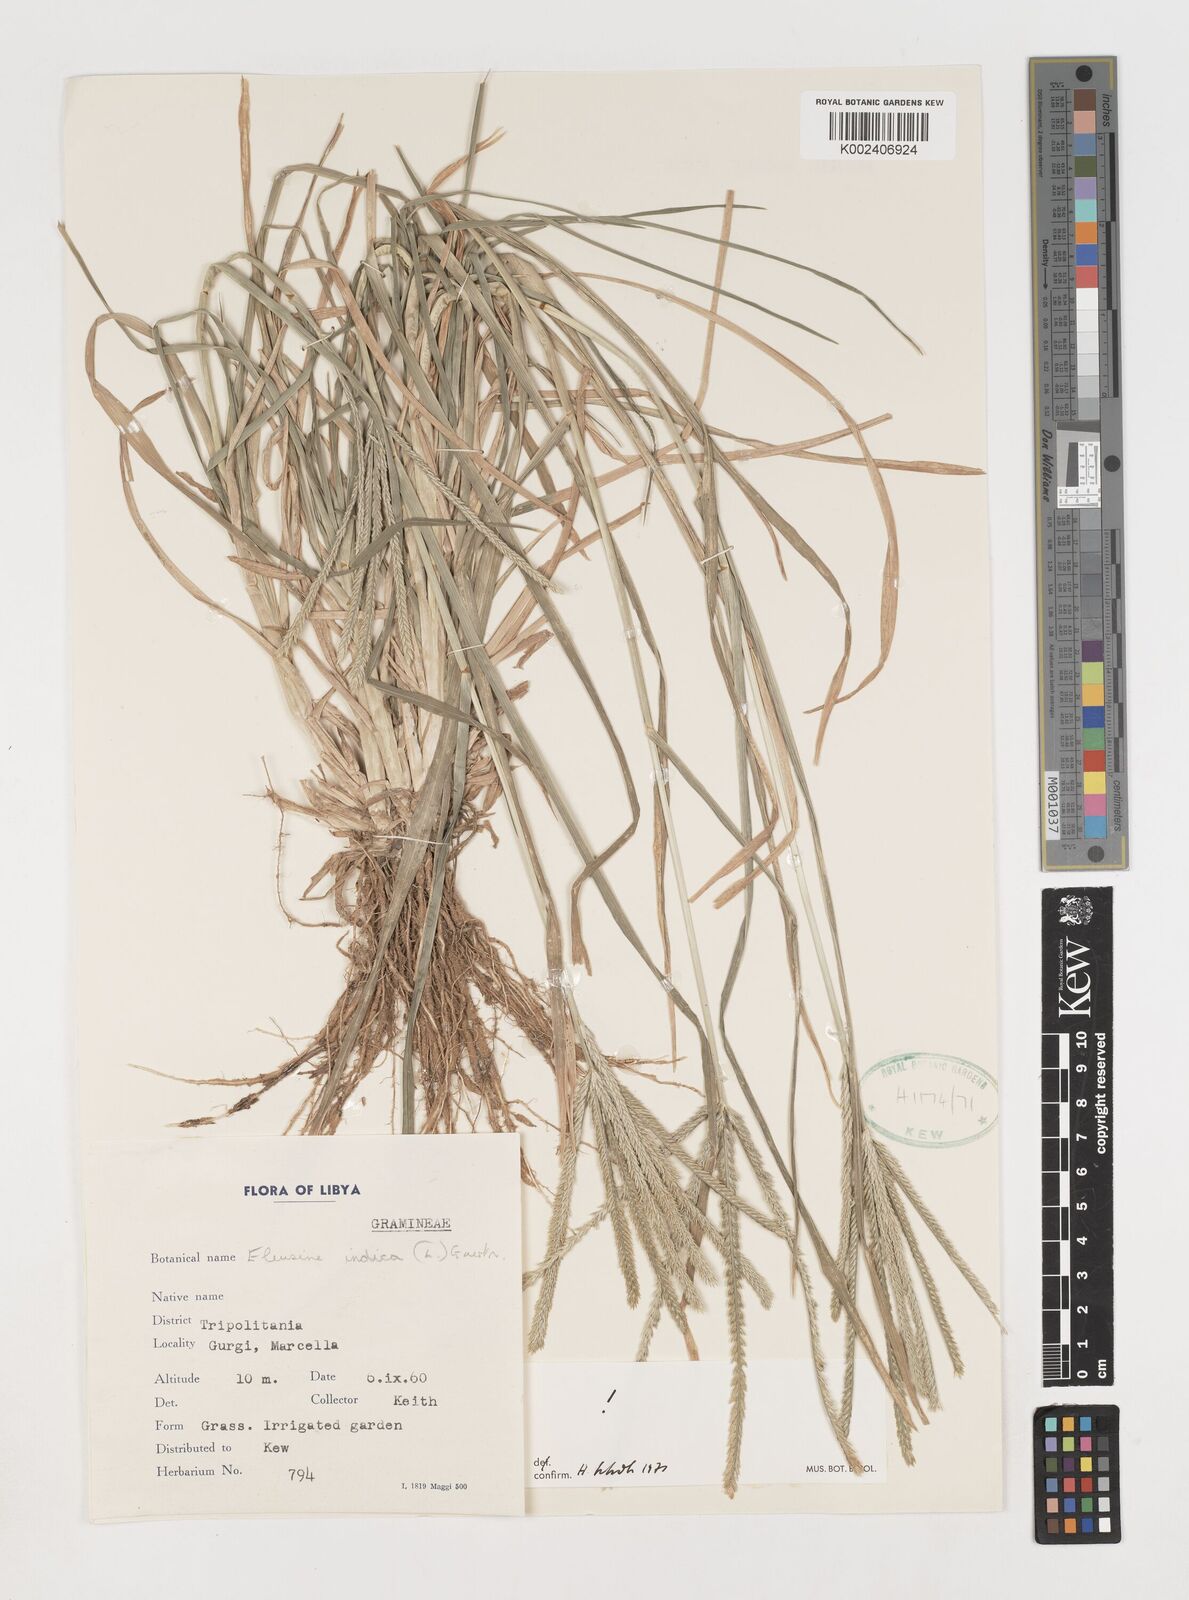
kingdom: Plantae
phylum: Tracheophyta
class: Liliopsida
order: Poales
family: Poaceae
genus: Eleusine
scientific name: Eleusine indica
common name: Yard-grass
